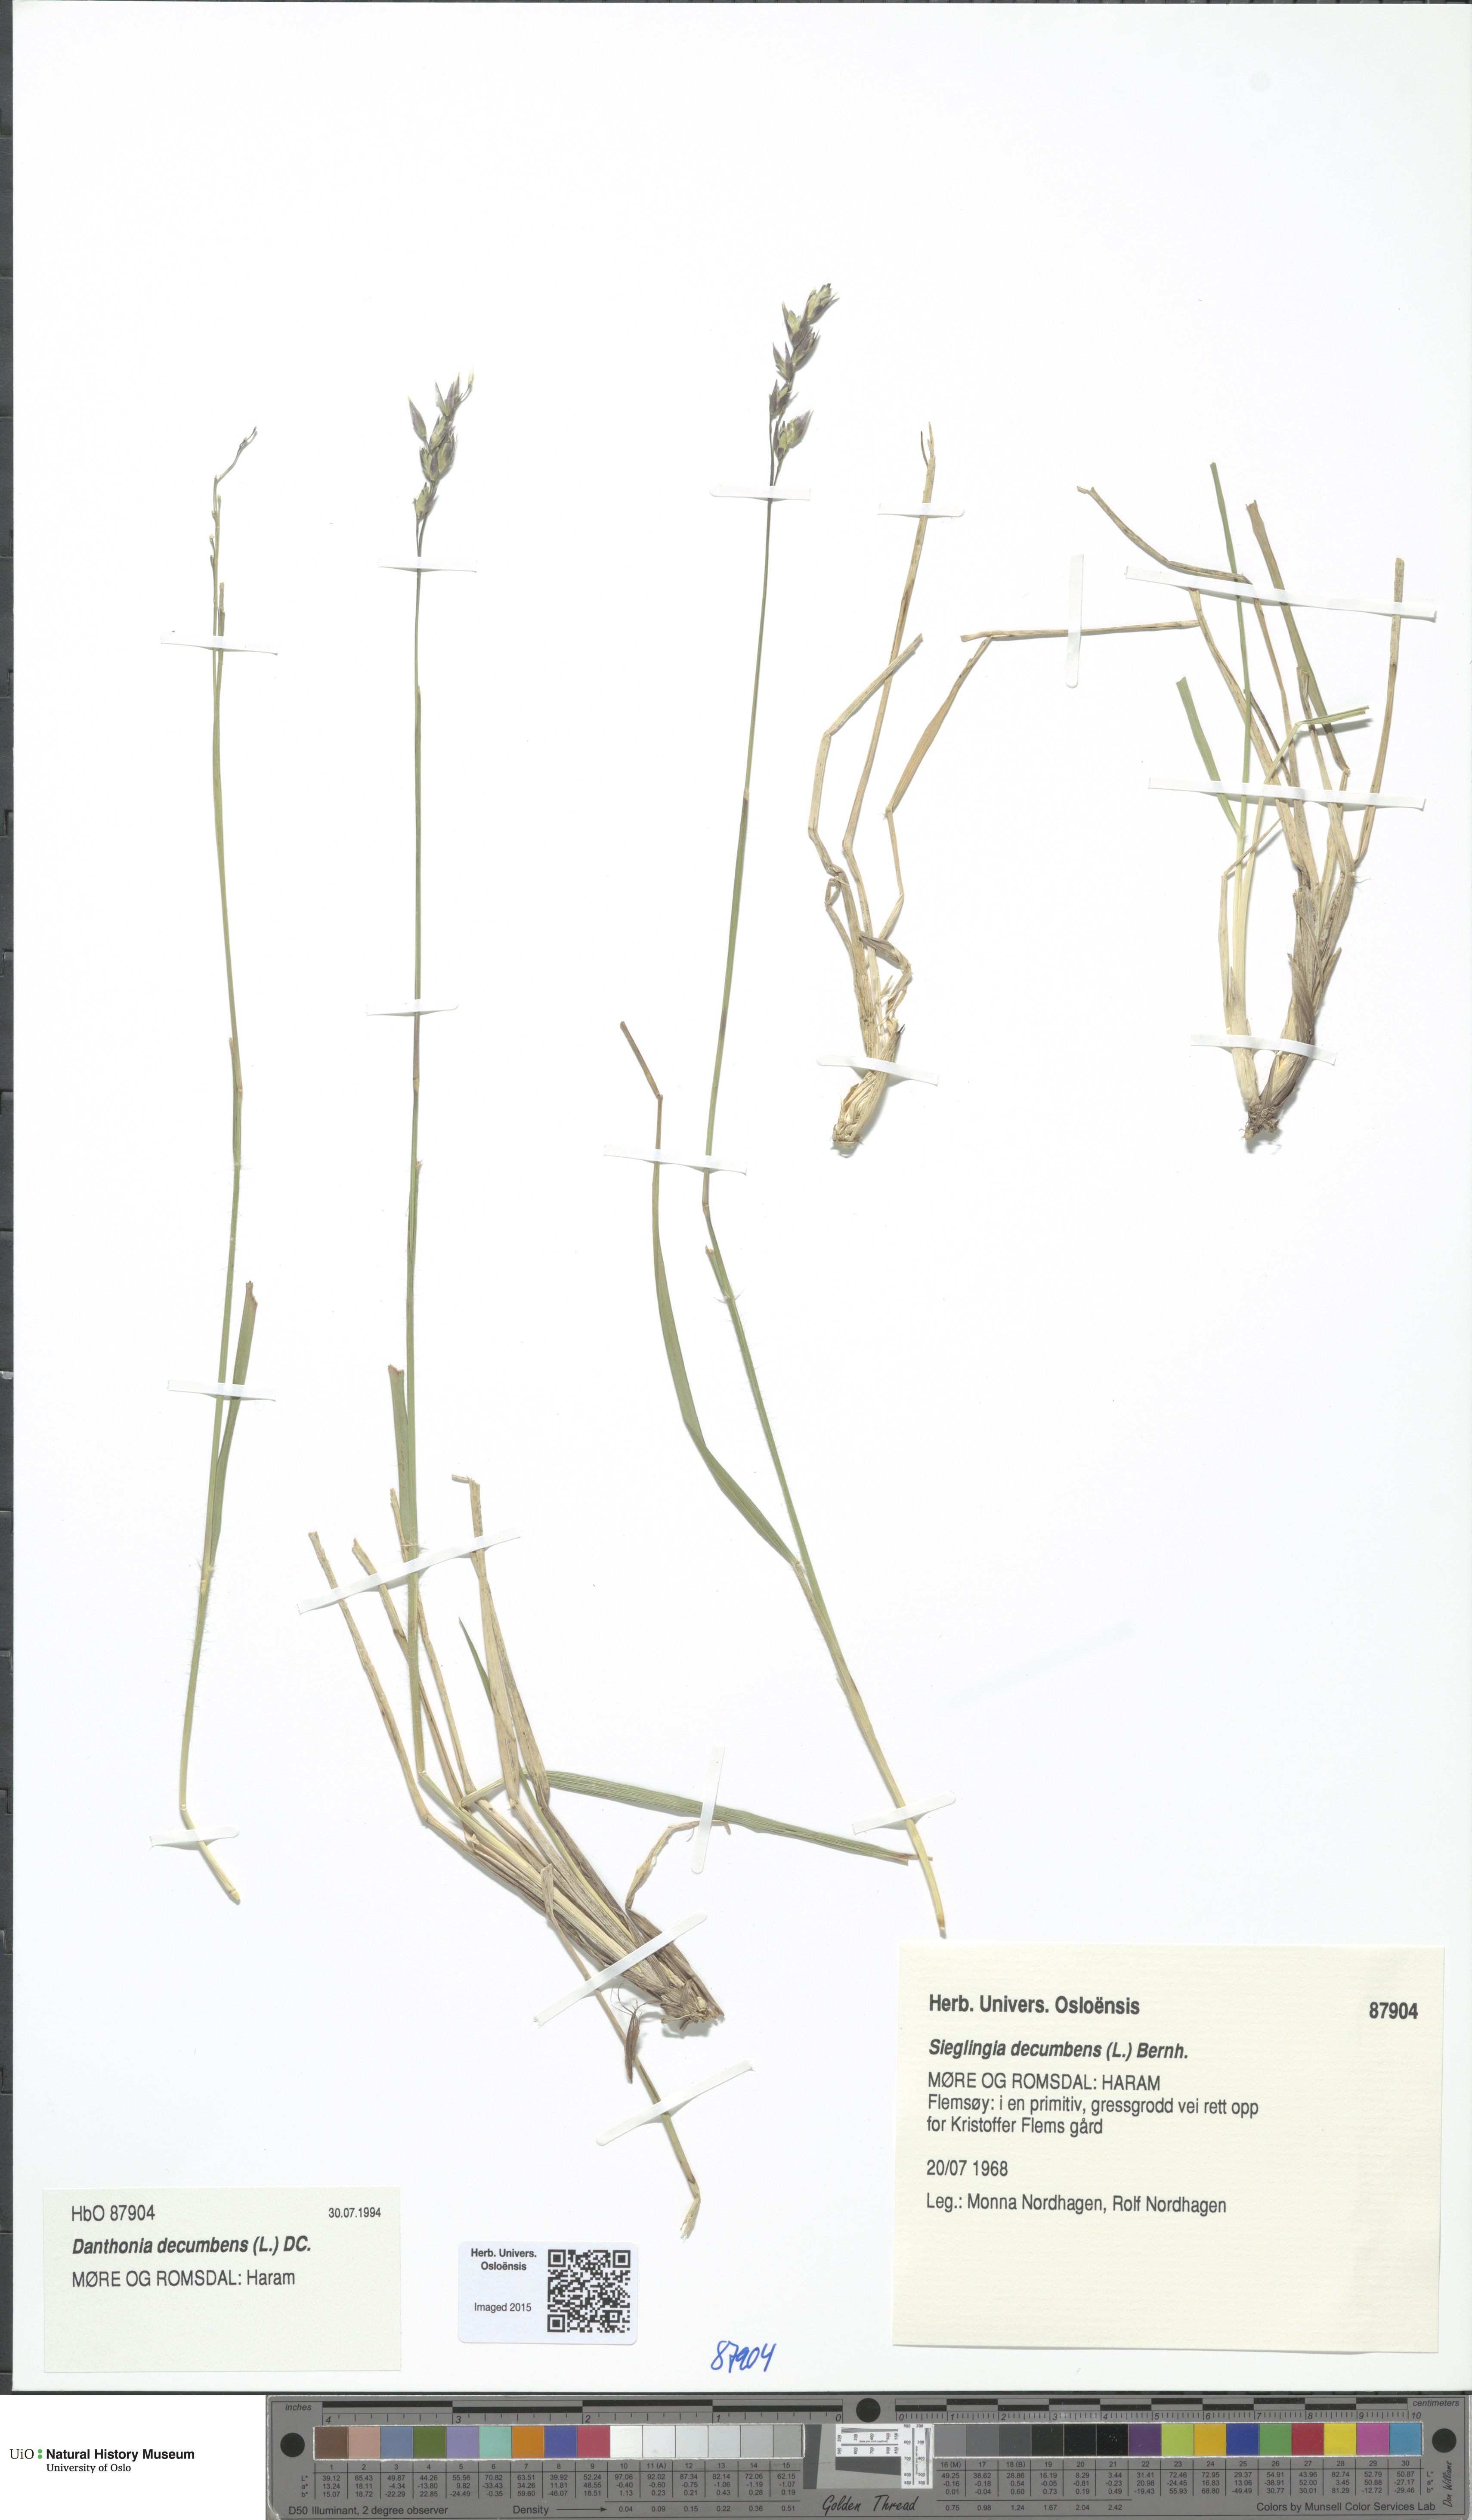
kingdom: Plantae
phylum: Tracheophyta
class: Liliopsida
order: Poales
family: Poaceae
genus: Danthonia
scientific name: Danthonia decumbens
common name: Common heathgrass
